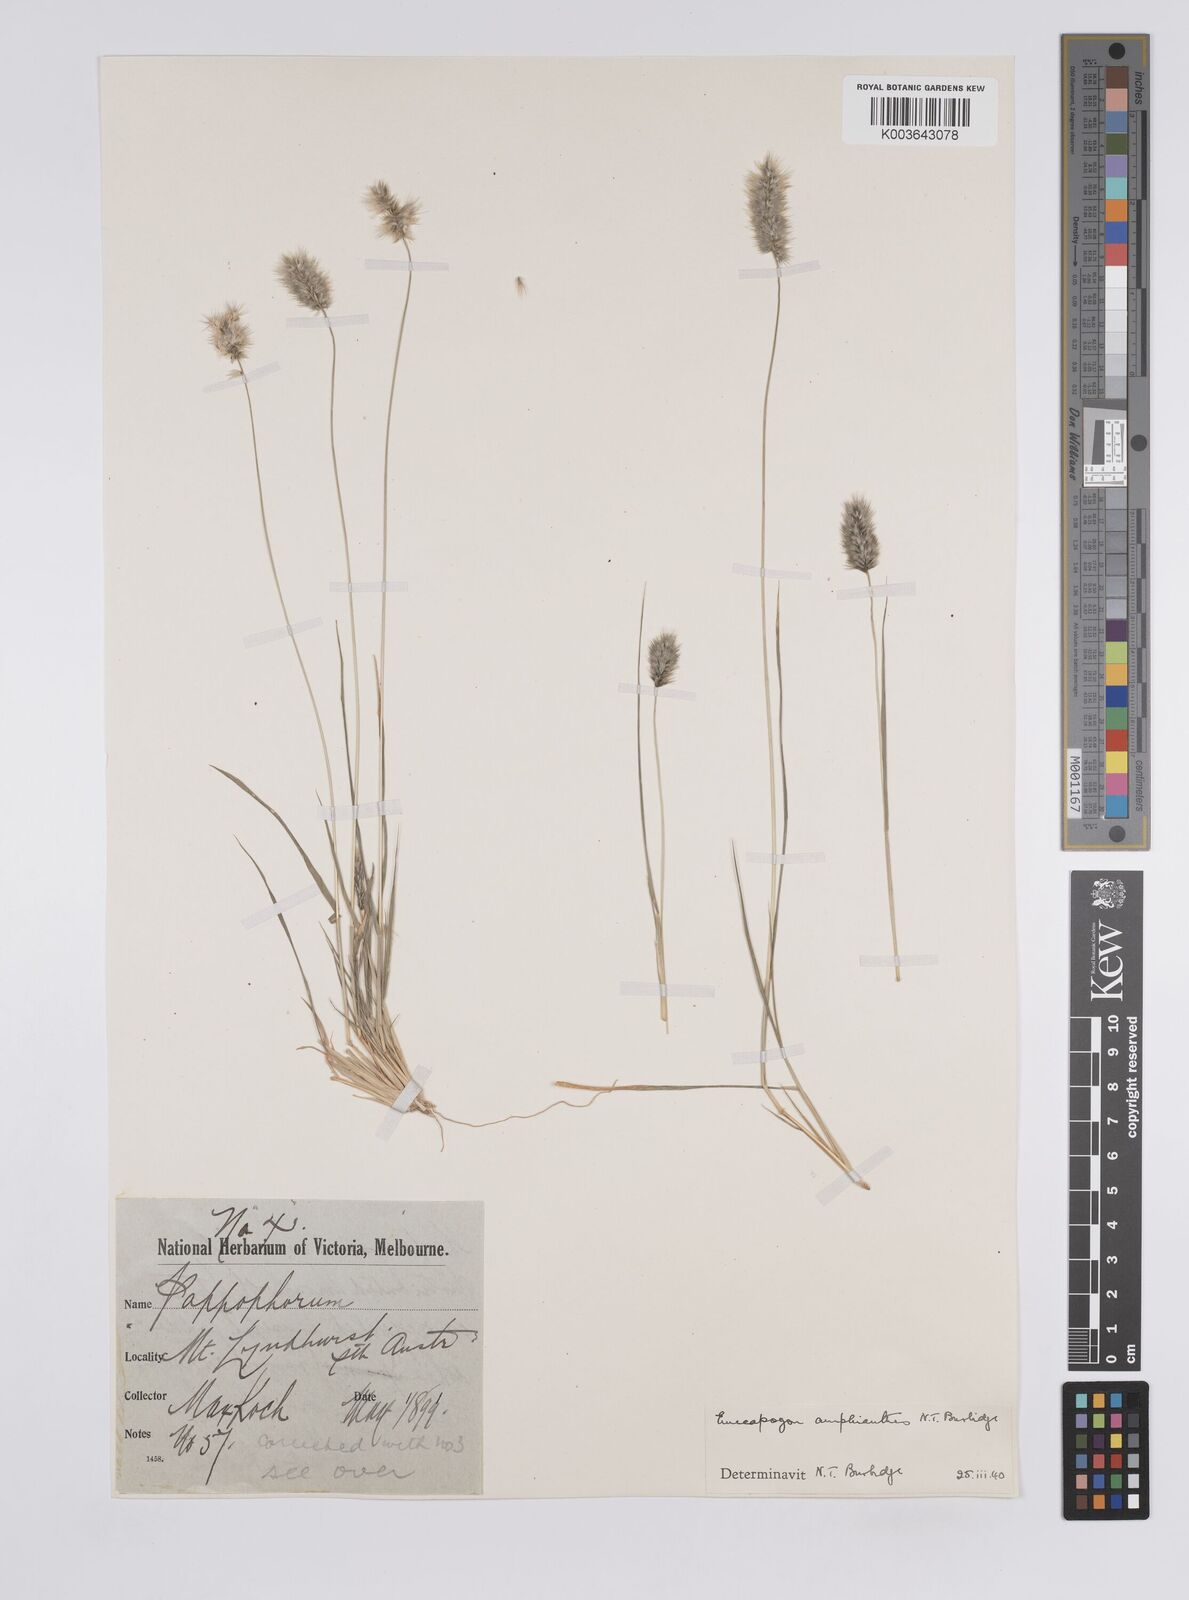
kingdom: Plantae
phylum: Tracheophyta
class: Liliopsida
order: Poales
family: Poaceae
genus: Enneapogon
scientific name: Enneapogon caerulescens
